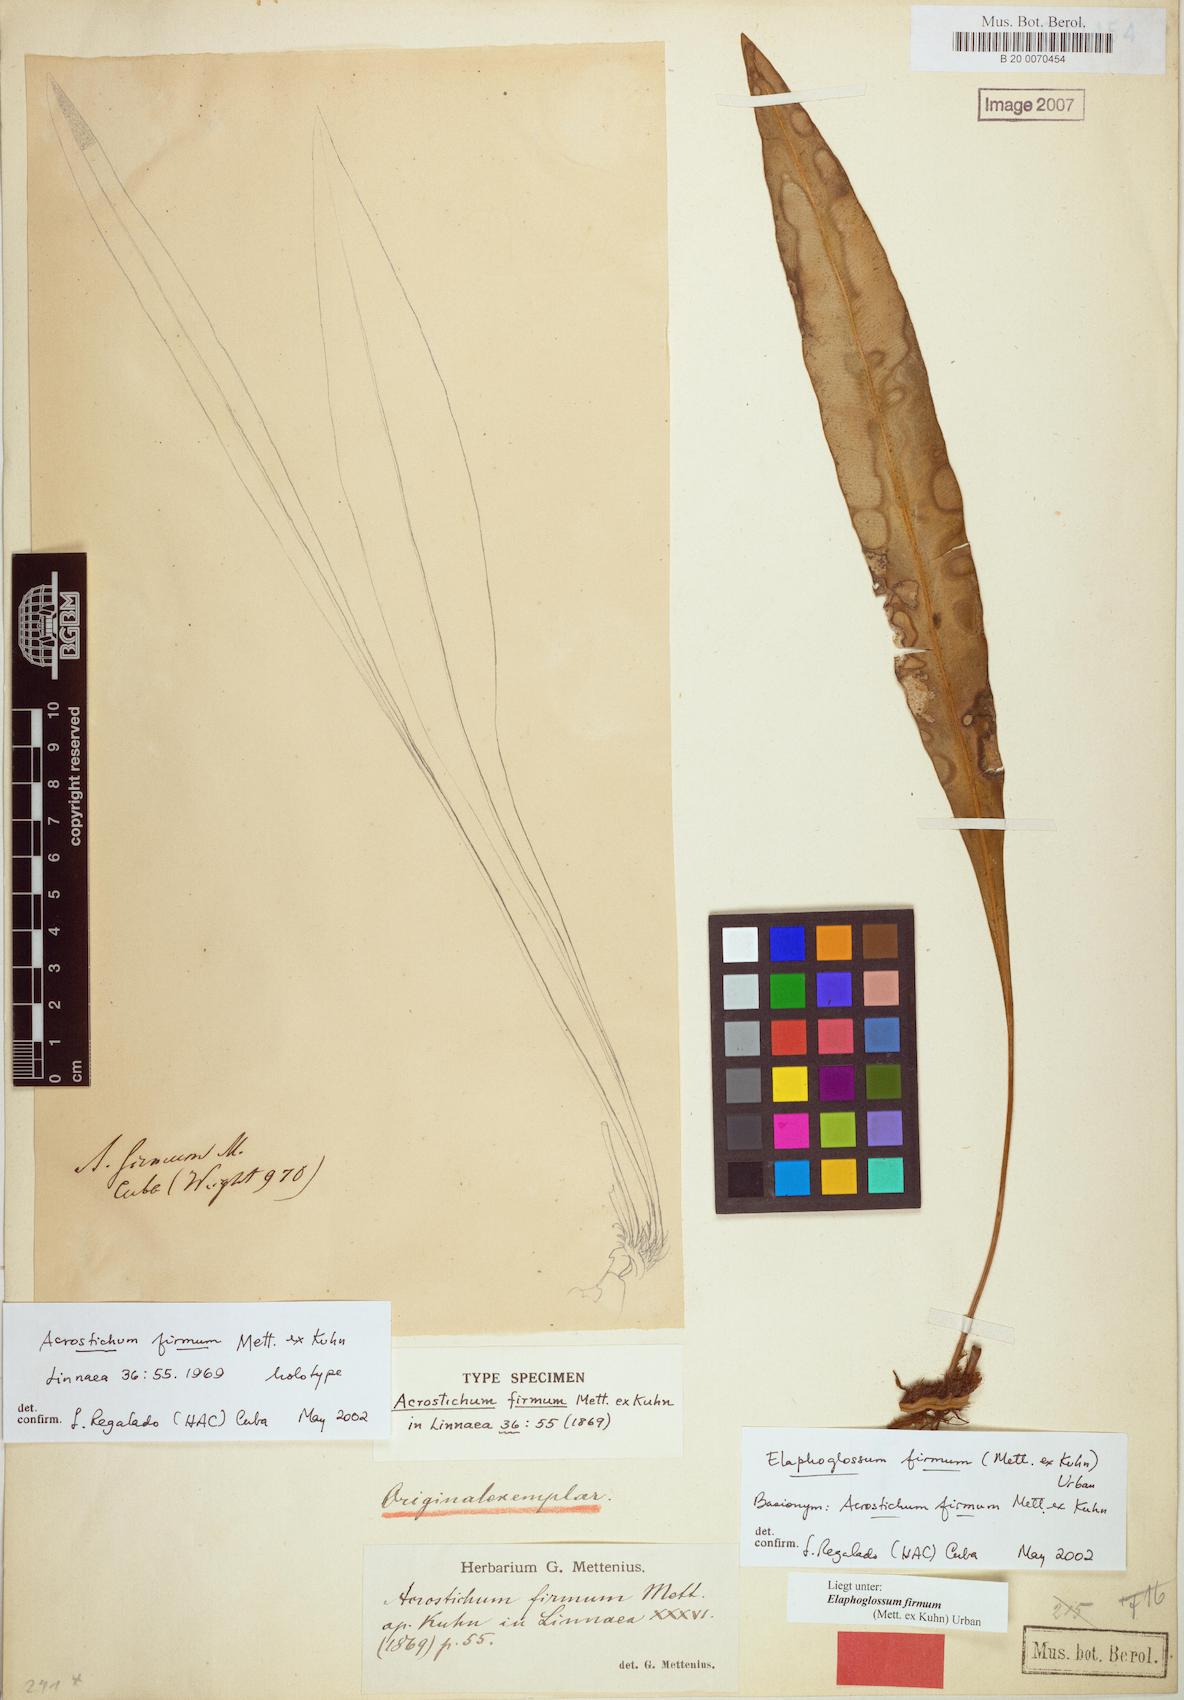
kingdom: Plantae
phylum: Tracheophyta
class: Polypodiopsida
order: Polypodiales
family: Dryopteridaceae
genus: Elaphoglossum
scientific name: Elaphoglossum hoffmannii
